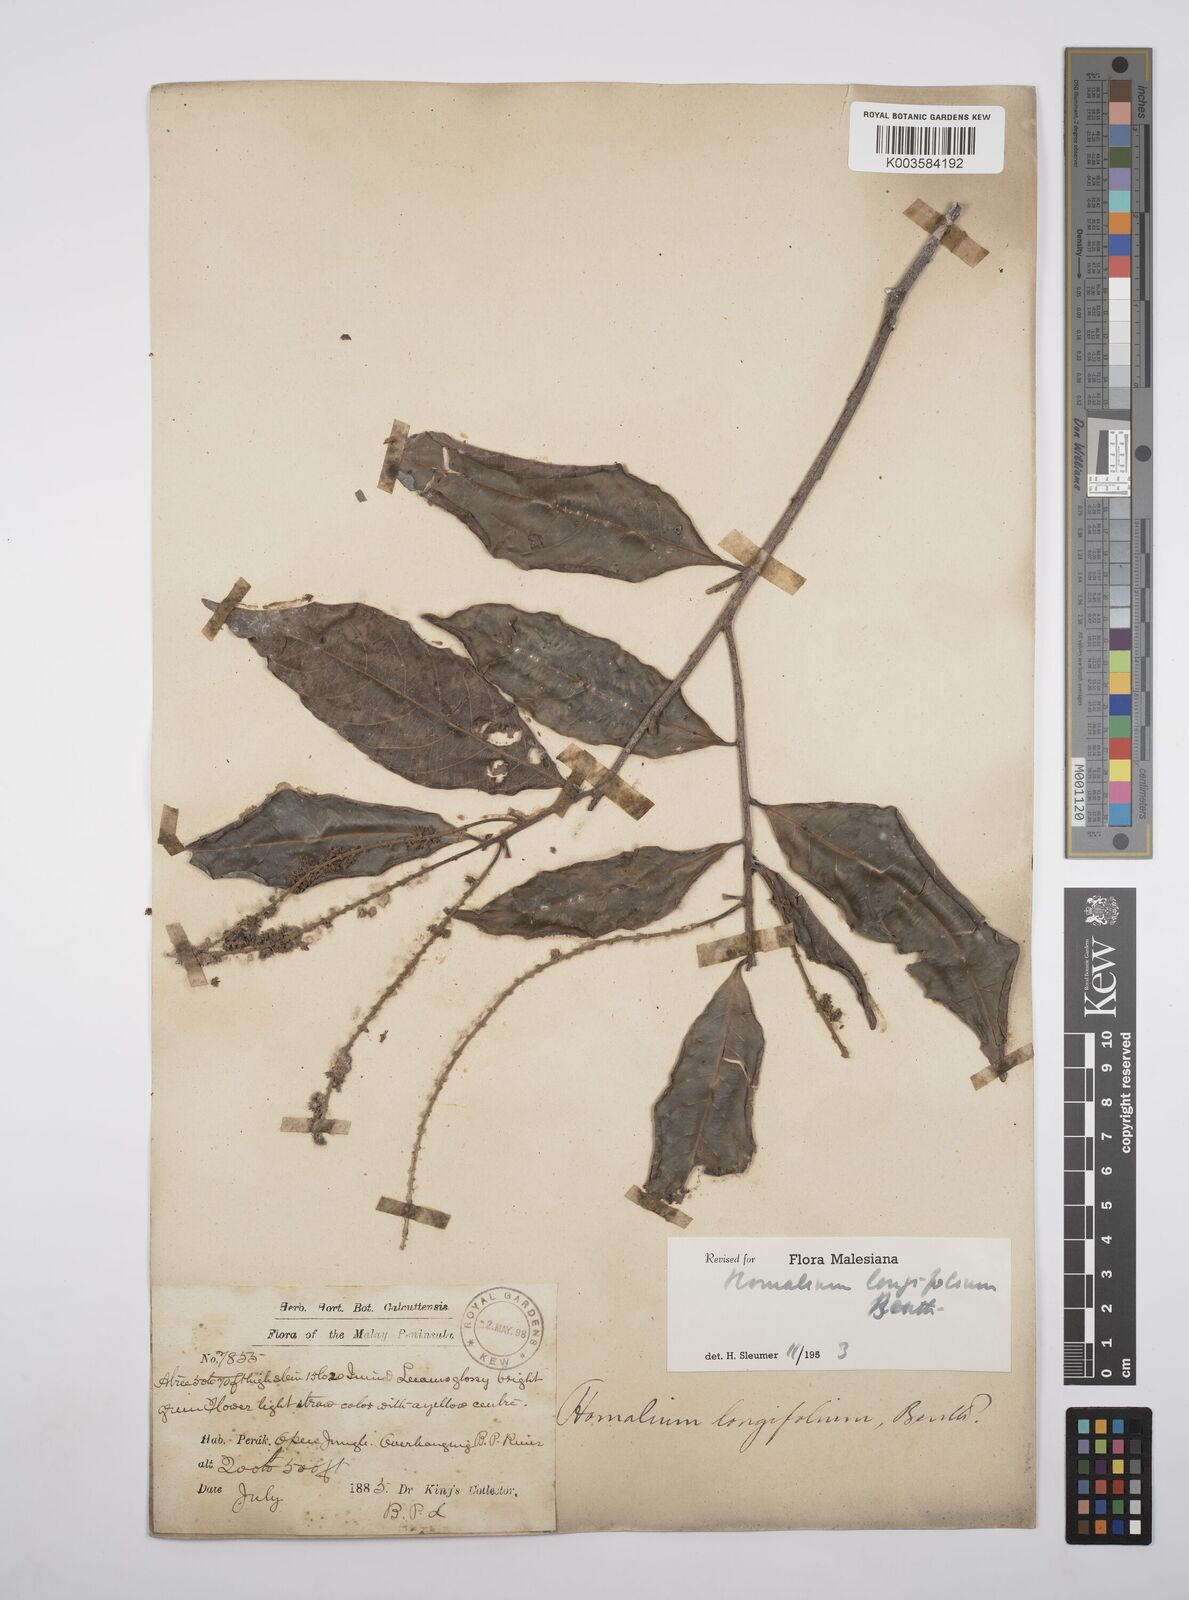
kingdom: Plantae
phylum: Tracheophyta
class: Magnoliopsida
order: Malpighiales
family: Salicaceae
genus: Homalium
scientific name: Homalium longifolium
